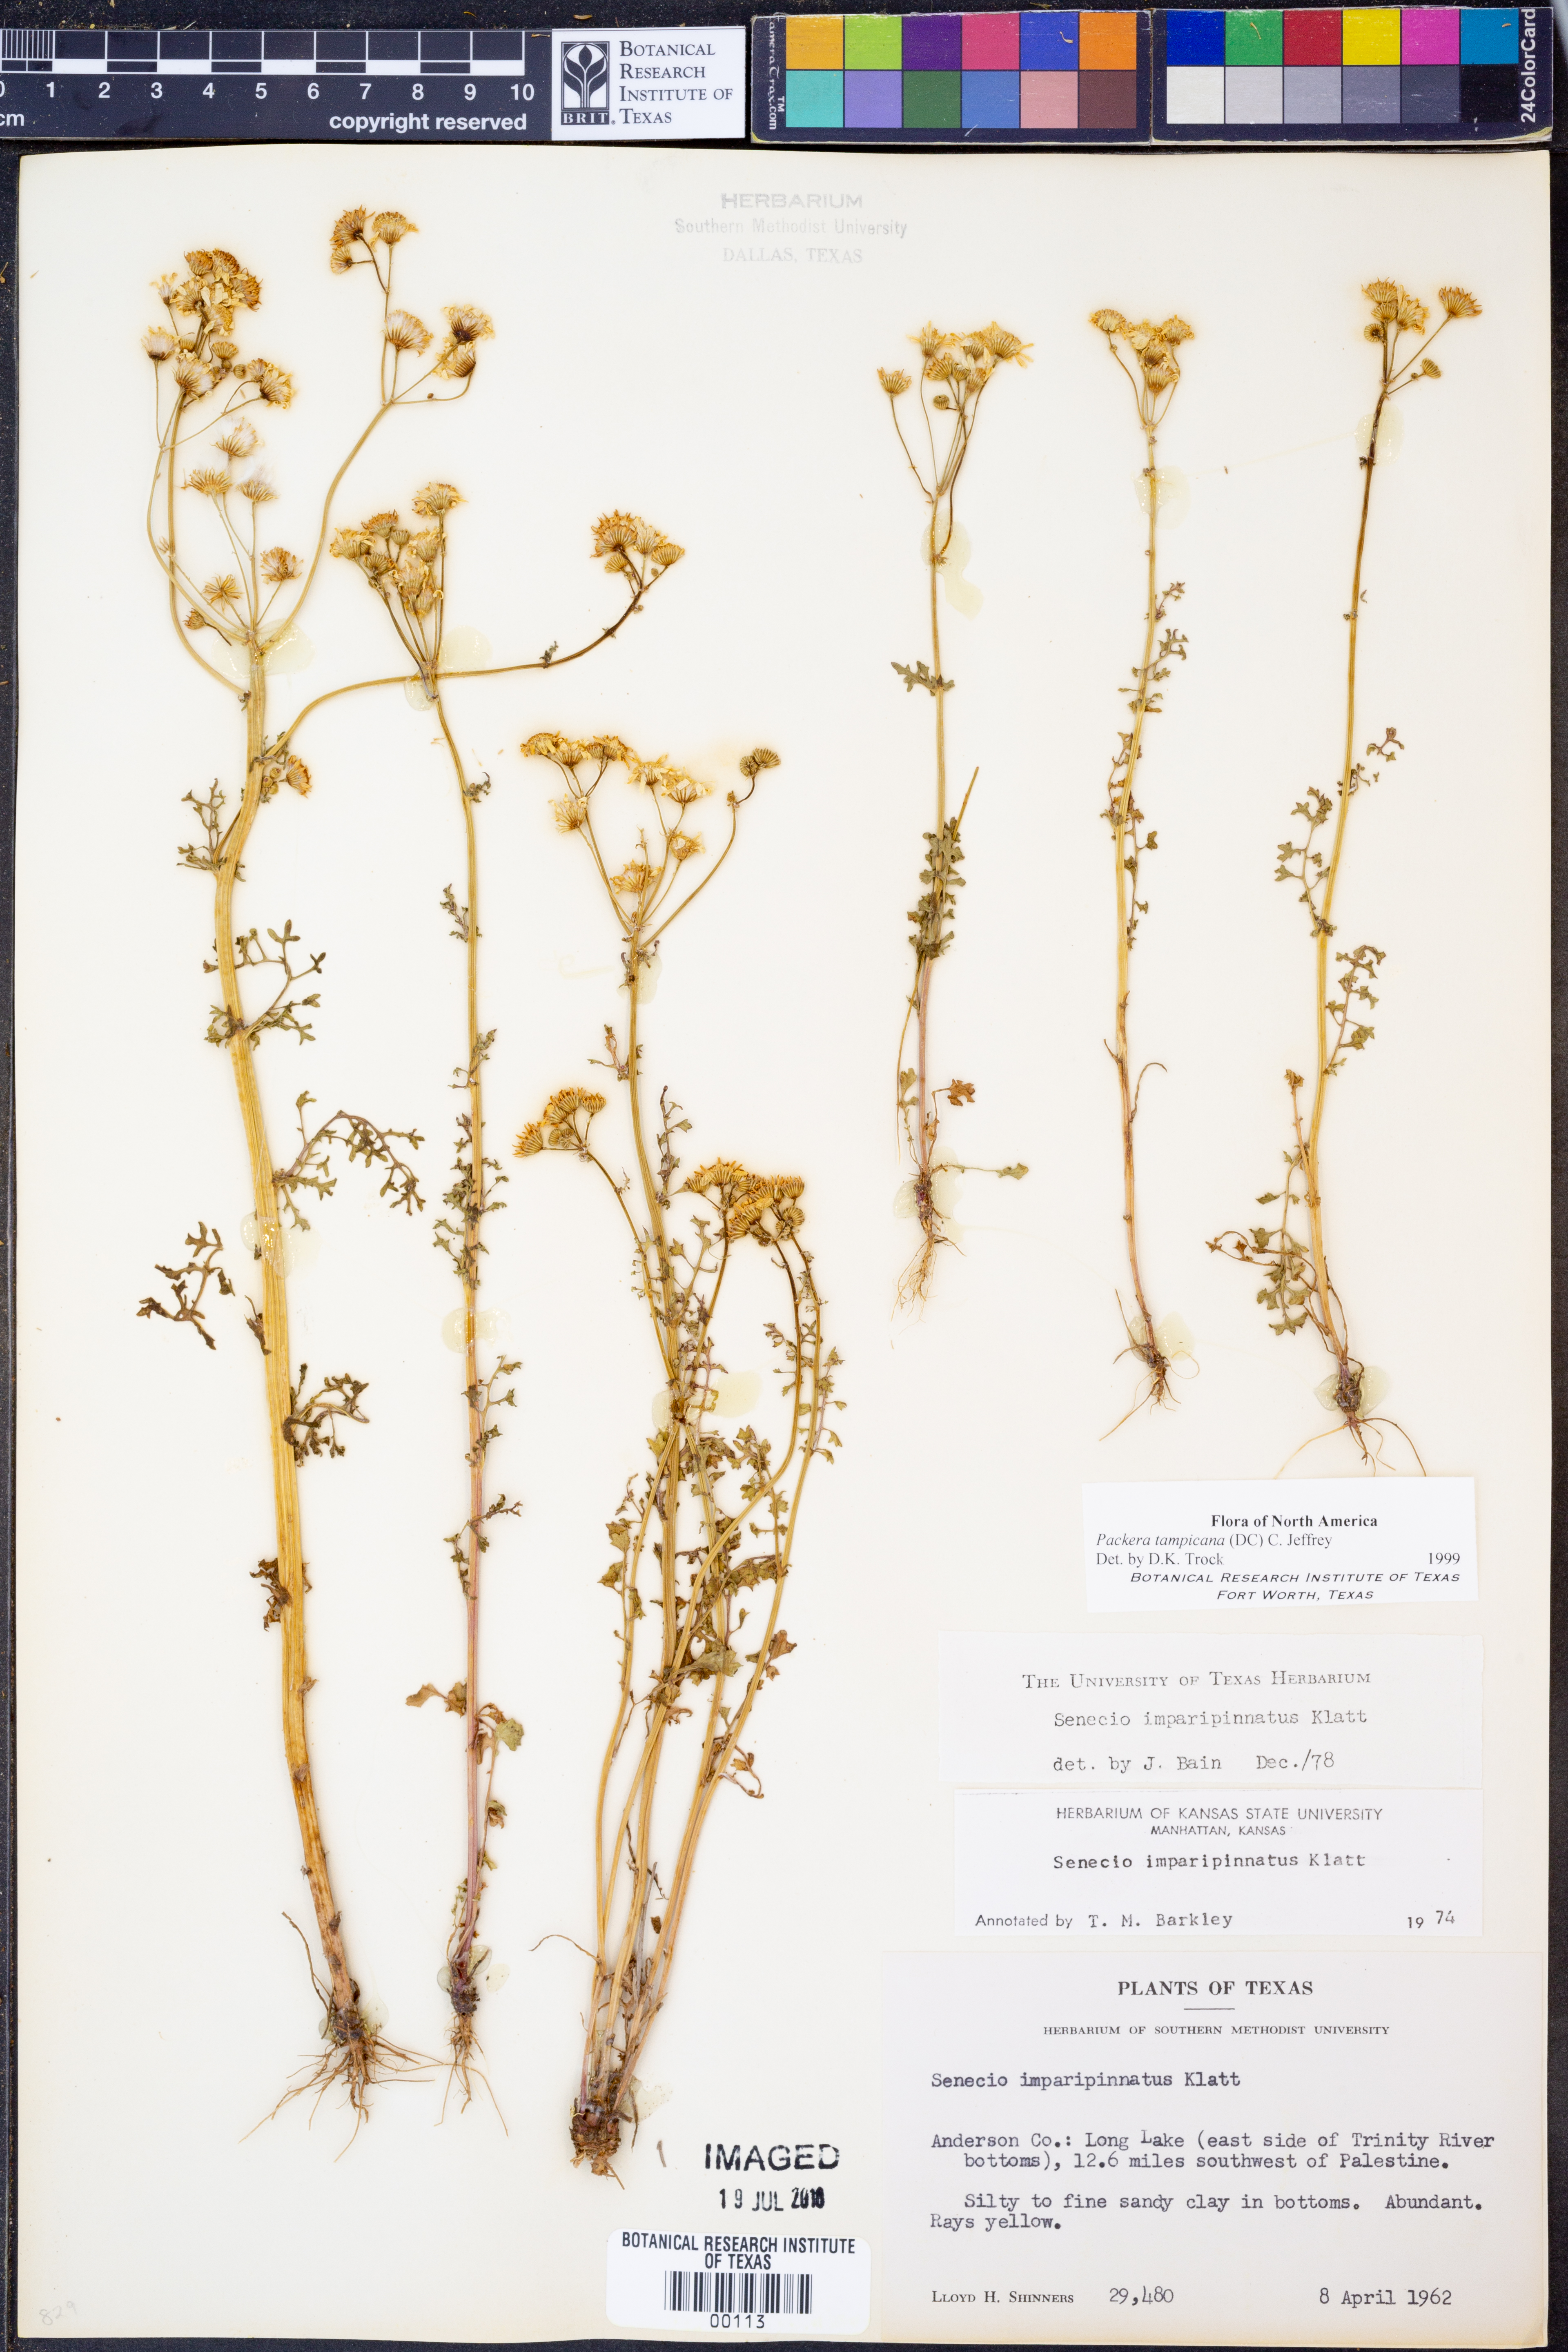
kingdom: Plantae
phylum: Tracheophyta
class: Magnoliopsida
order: Asterales
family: Asteraceae
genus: Packera
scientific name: Packera tampicana
